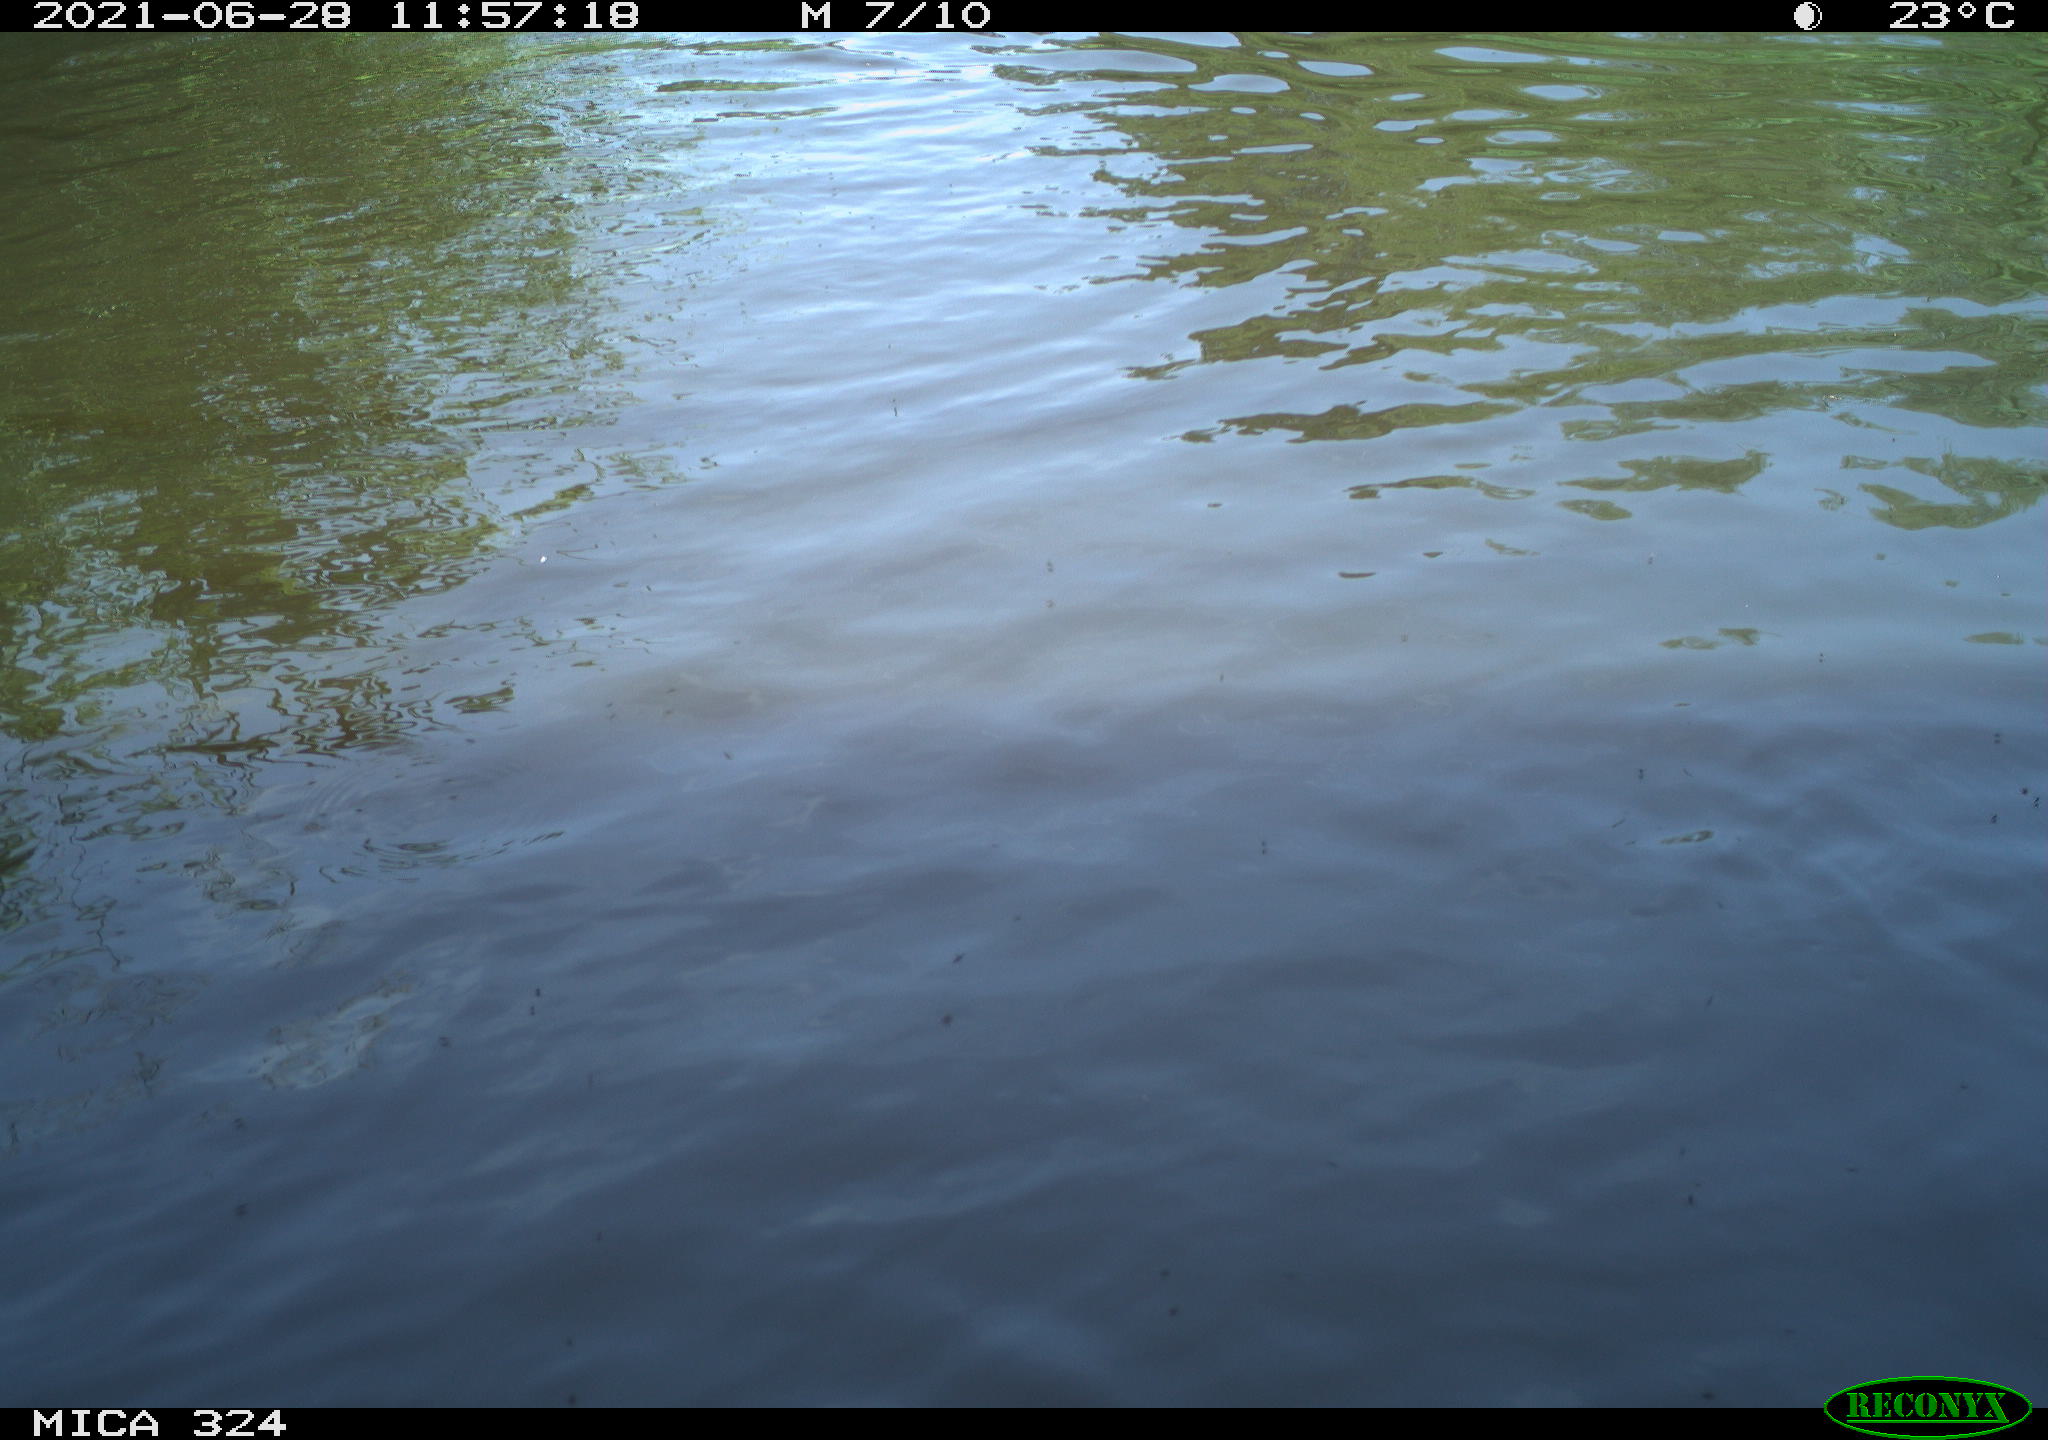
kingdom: Animalia
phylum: Chordata
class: Aves
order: Gruiformes
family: Rallidae
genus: Gallinula
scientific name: Gallinula chloropus
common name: Common moorhen
